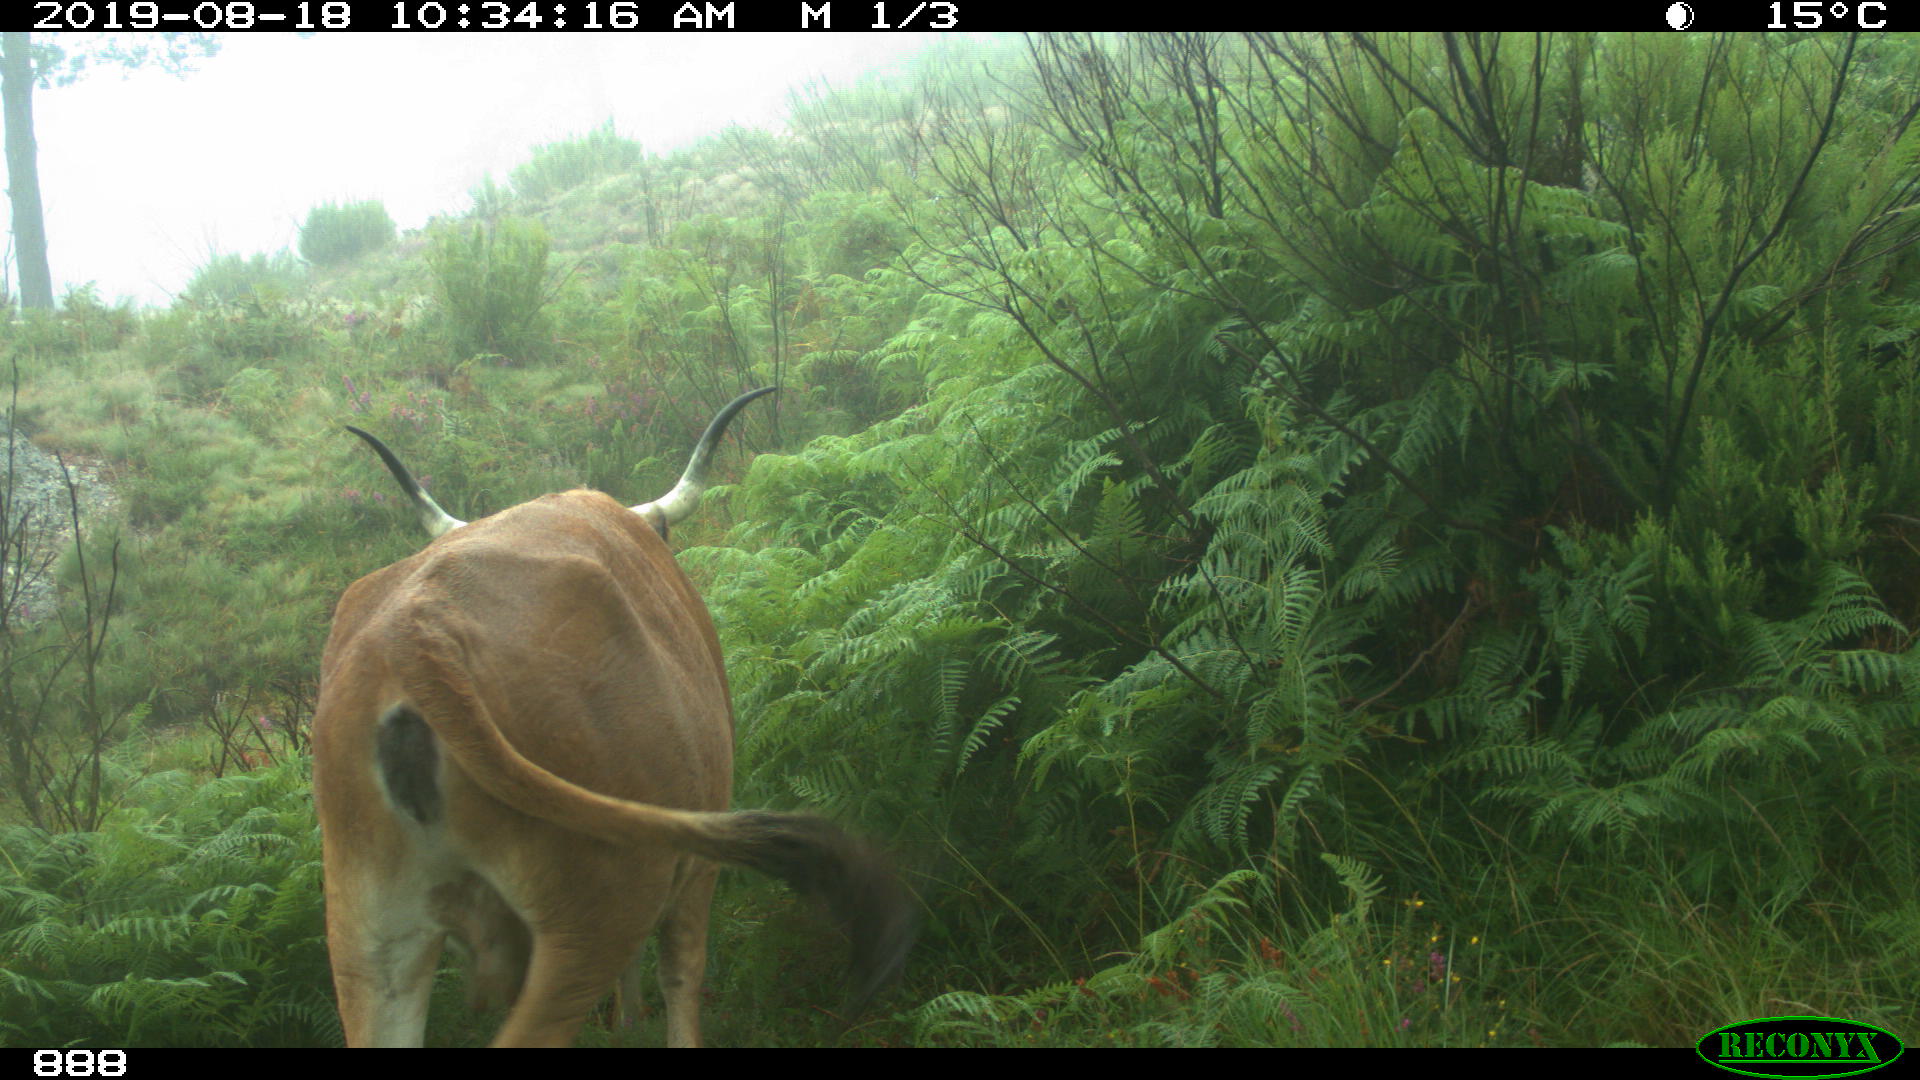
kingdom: Animalia
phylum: Chordata
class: Mammalia
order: Artiodactyla
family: Bovidae
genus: Bos
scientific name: Bos taurus
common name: Domesticated cattle
